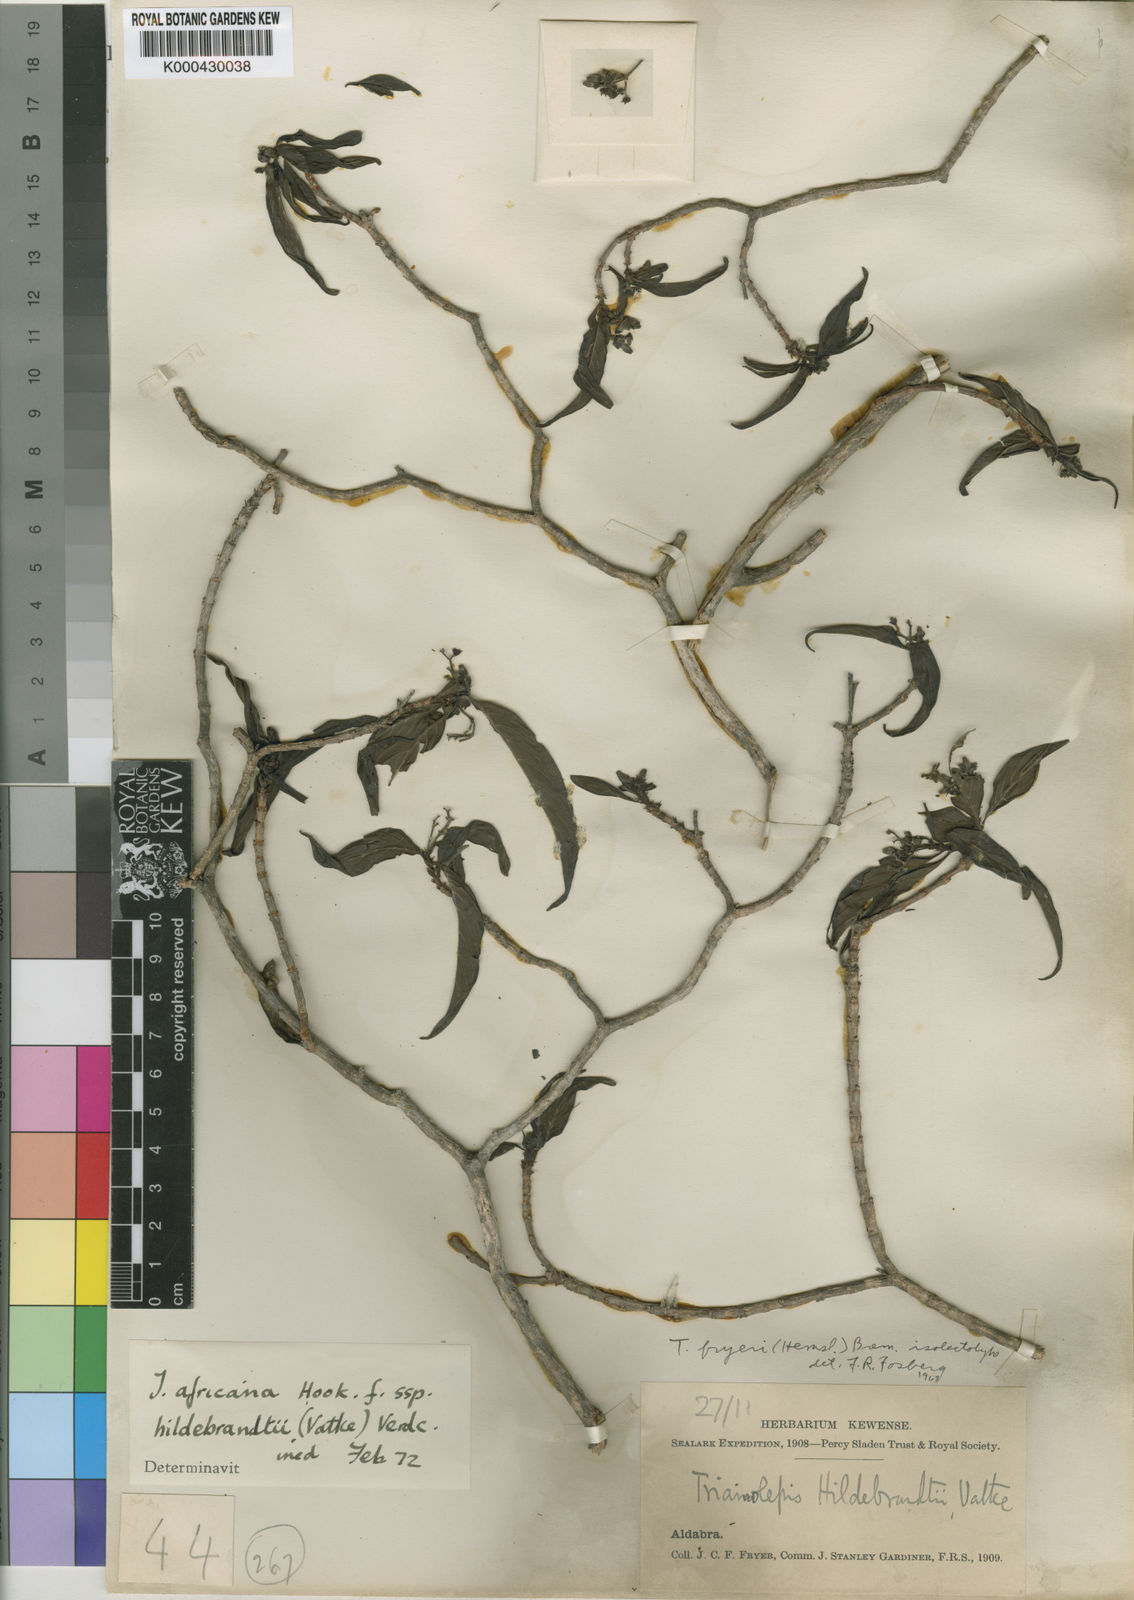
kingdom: Plantae
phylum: Tracheophyta
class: Magnoliopsida
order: Gentianales
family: Rubiaceae
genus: Triainolepis
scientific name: Triainolepis africana
